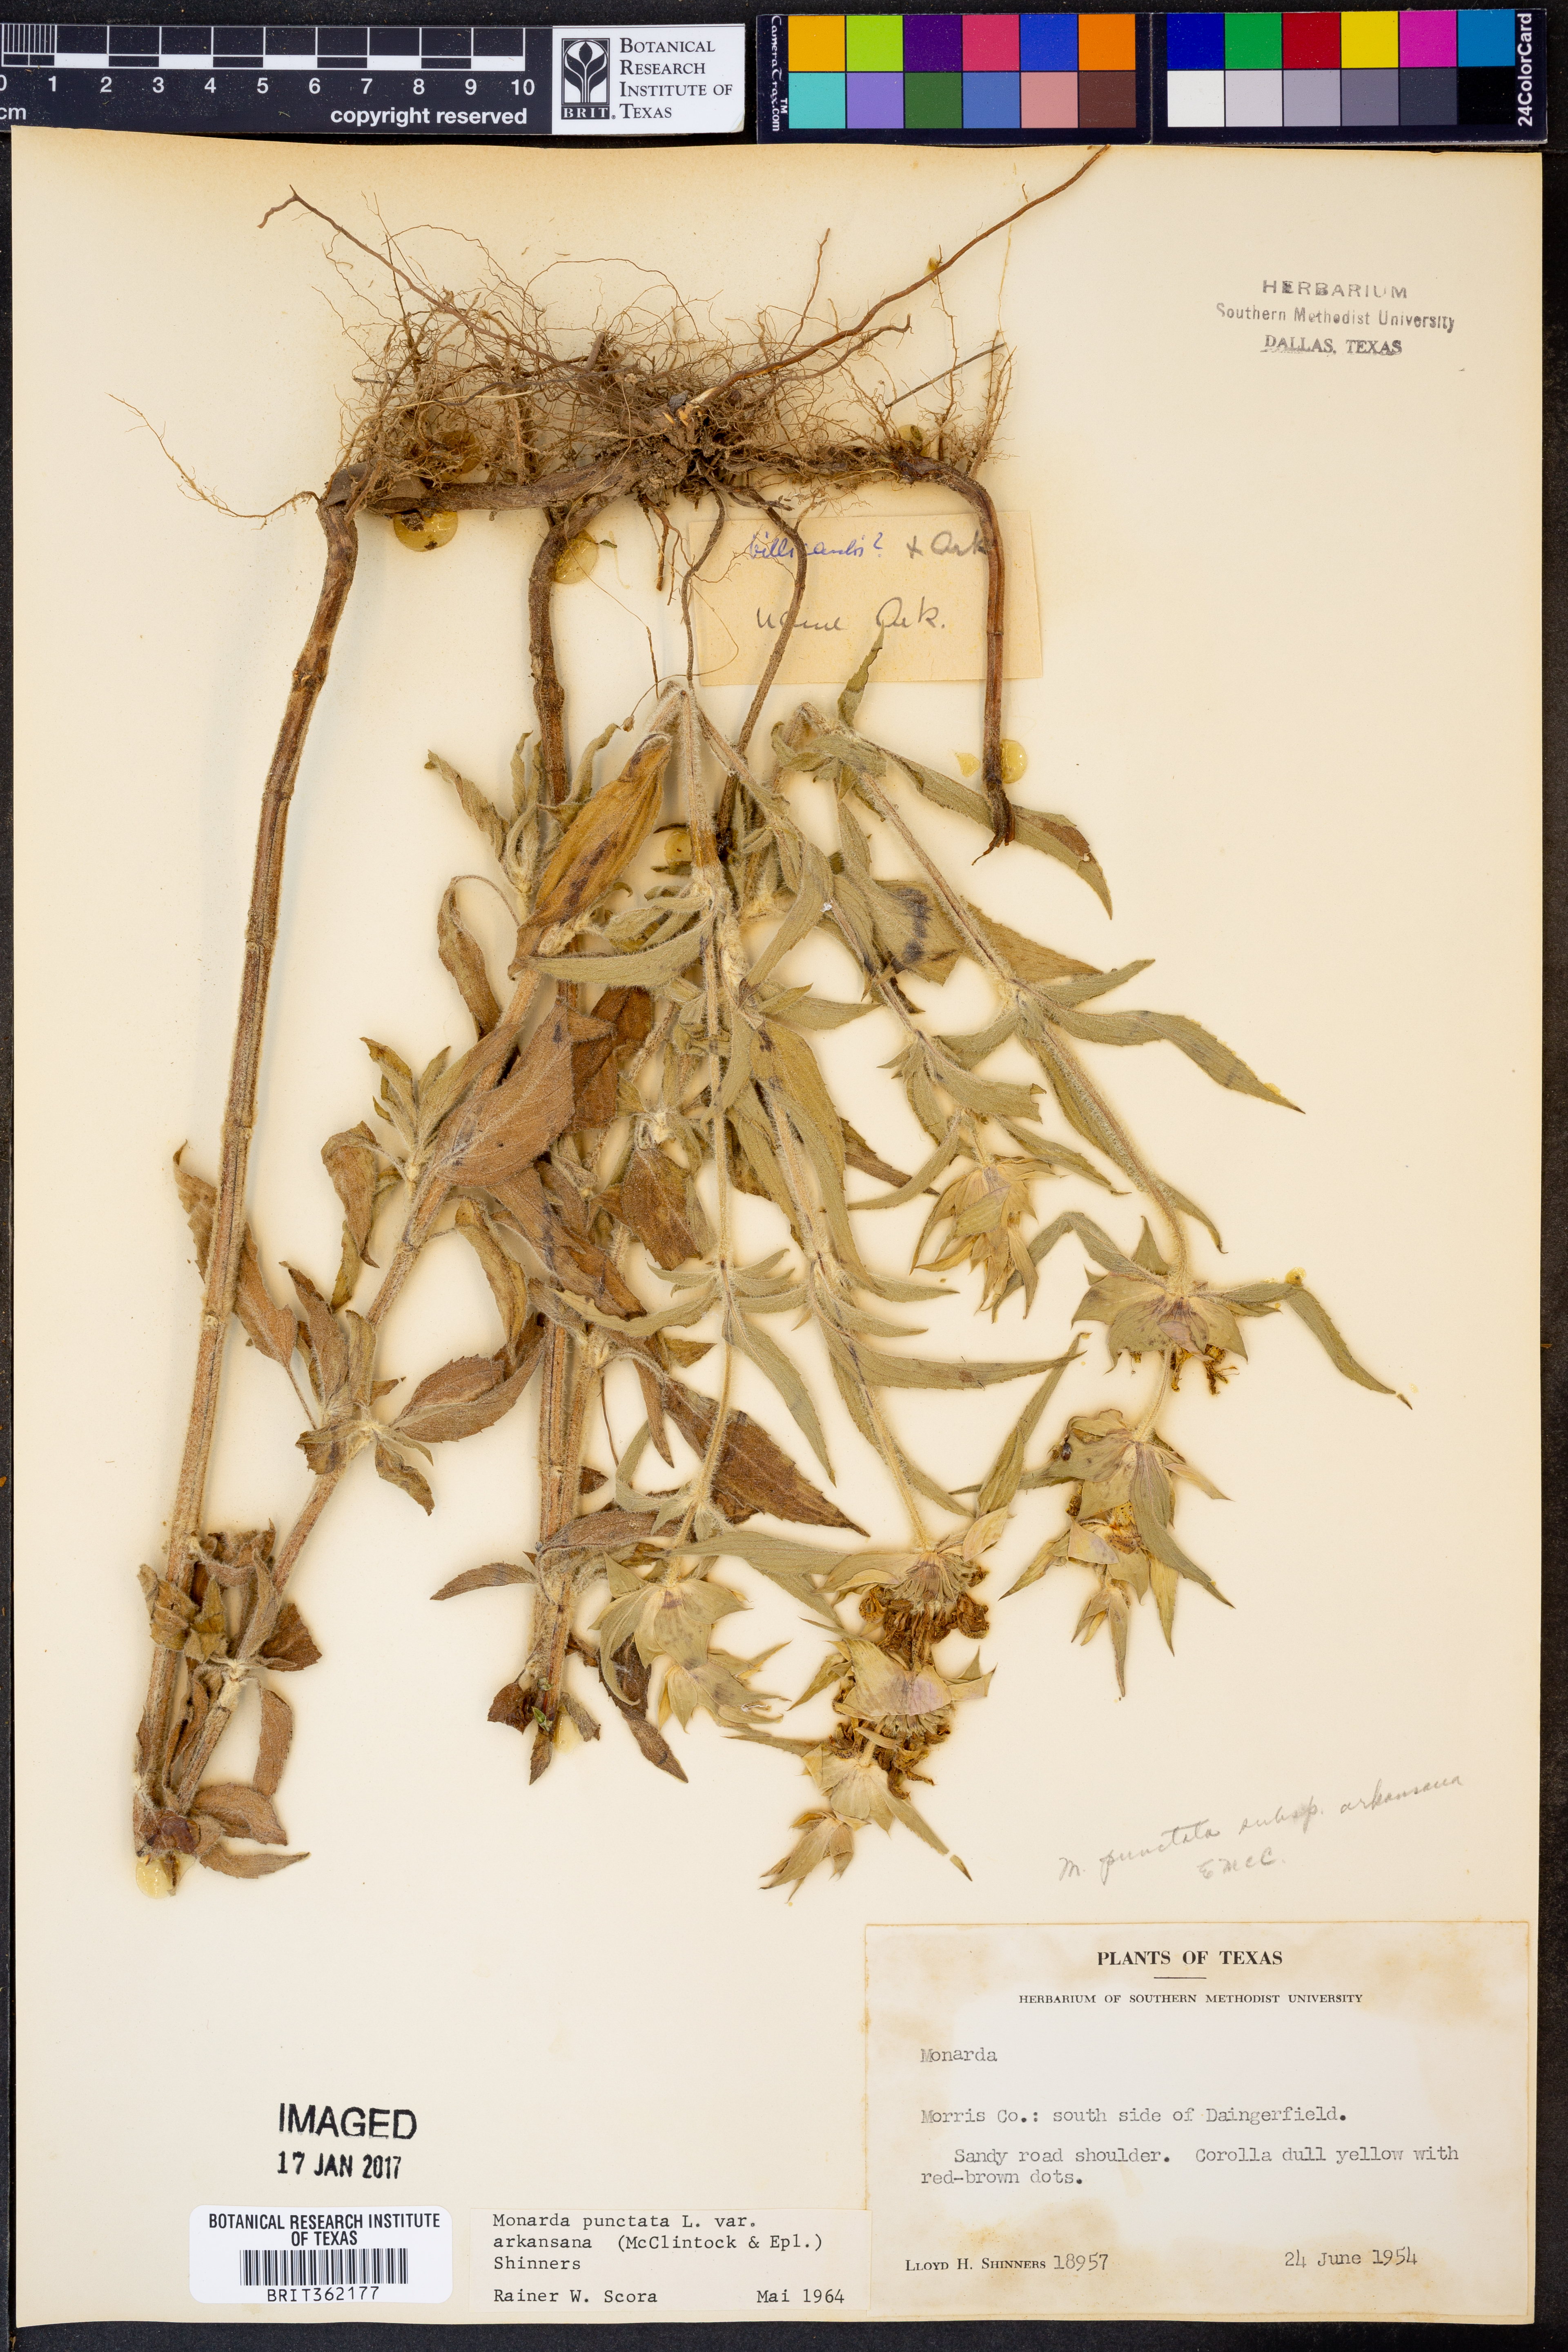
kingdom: Plantae
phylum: Tracheophyta
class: Magnoliopsida
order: Lamiales
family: Lamiaceae
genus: Monarda
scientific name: Monarda punctata
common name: Dotted monarda
